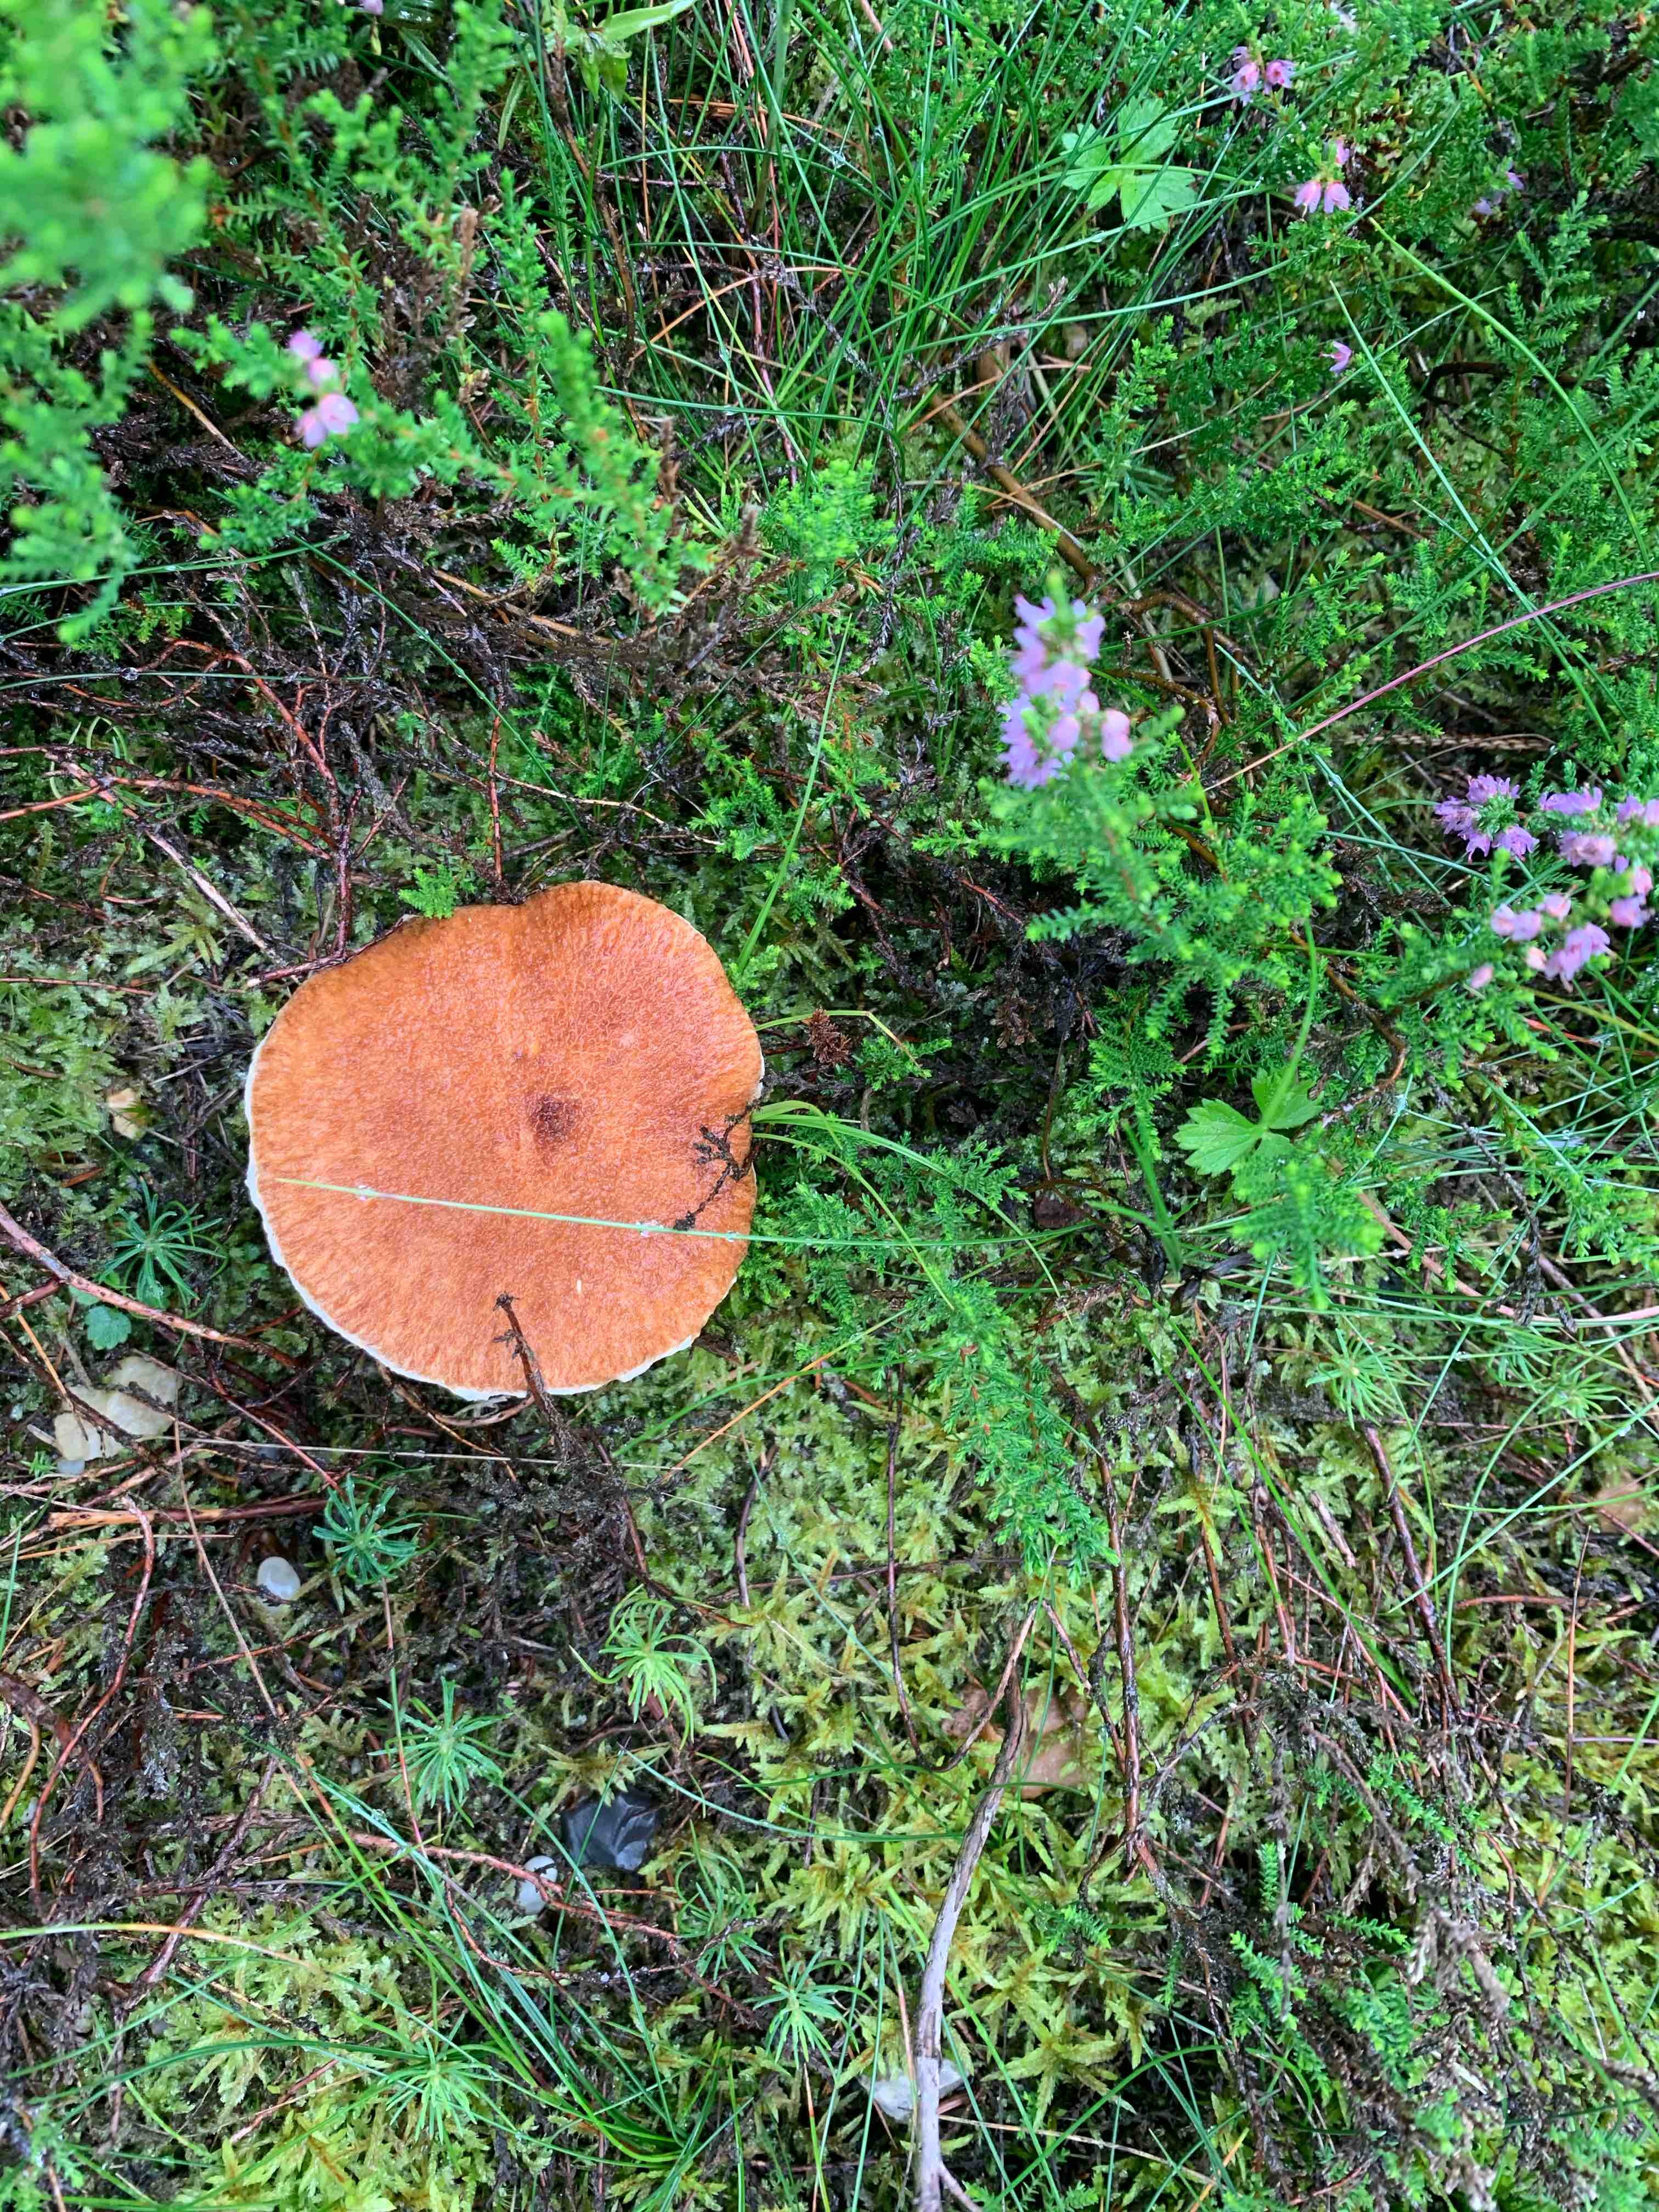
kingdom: Fungi
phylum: Basidiomycota
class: Agaricomycetes
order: Boletales
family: Suillaceae
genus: Suillus
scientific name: Suillus cavipes
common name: hulstokket slimrørhat
